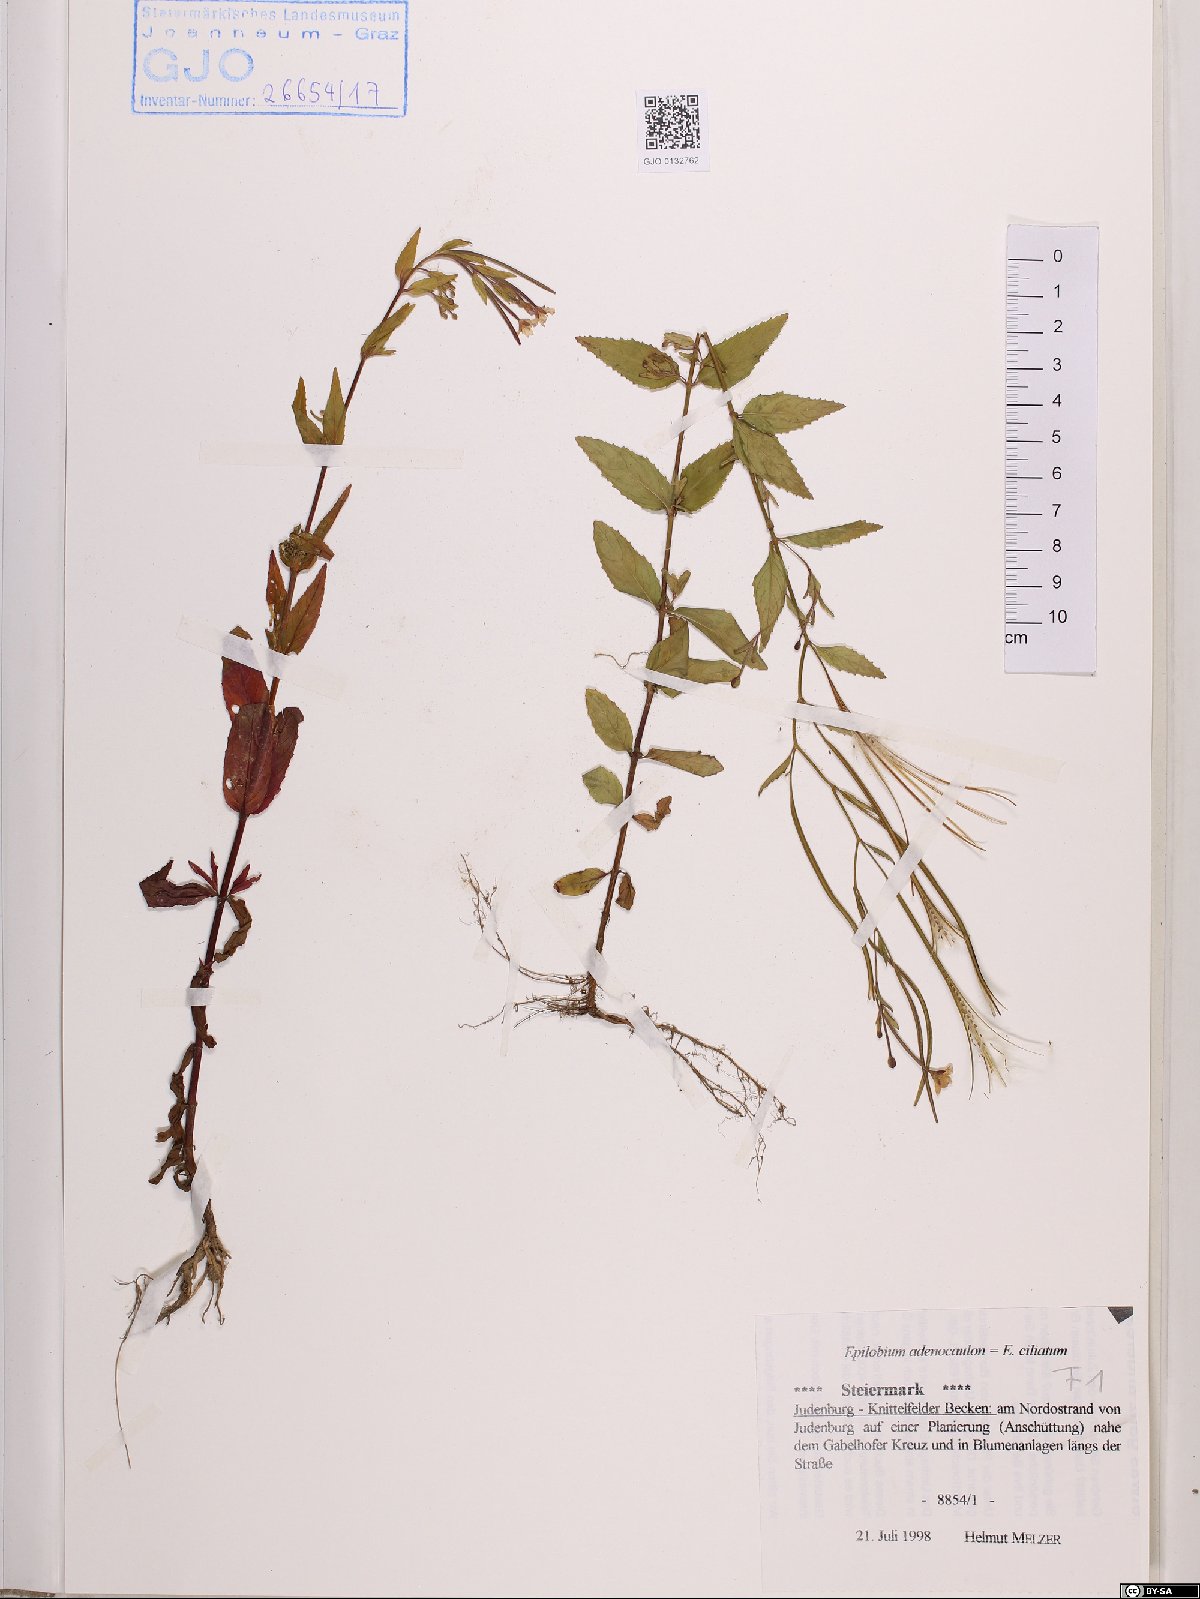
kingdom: Plantae
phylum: Tracheophyta
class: Magnoliopsida
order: Myrtales
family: Onagraceae
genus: Epilobium
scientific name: Epilobium ciliatum
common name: American willowherb
